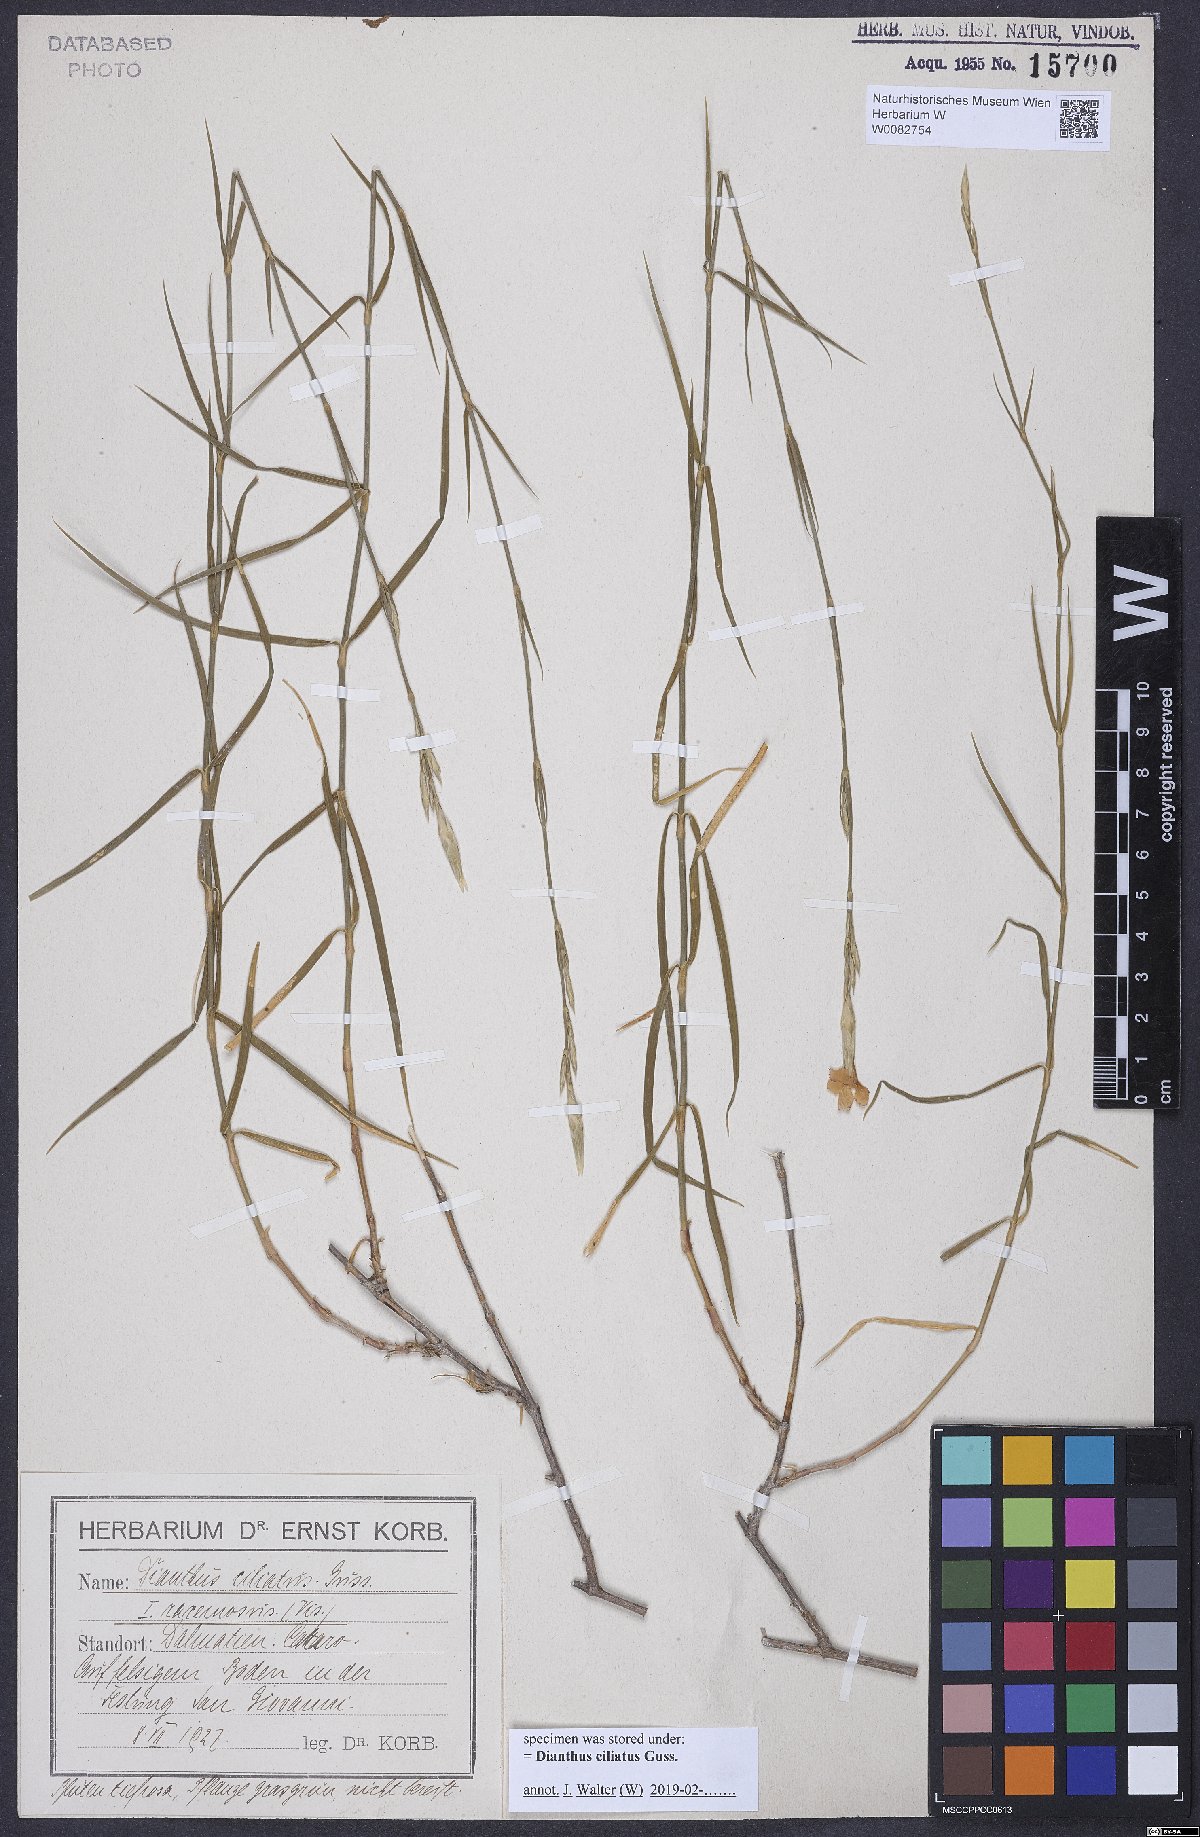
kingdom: Plantae
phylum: Tracheophyta
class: Magnoliopsida
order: Caryophyllales
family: Caryophyllaceae
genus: Dianthus
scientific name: Dianthus ciliatus
